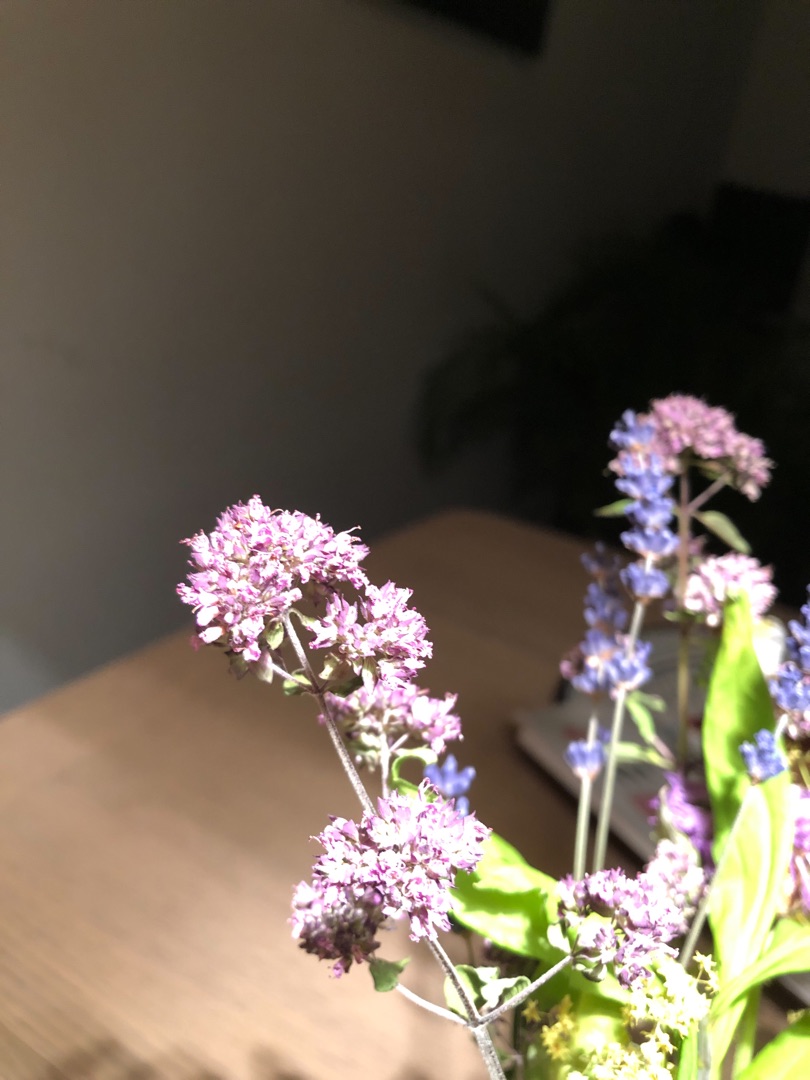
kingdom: Plantae
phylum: Tracheophyta
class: Magnoliopsida
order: Lamiales
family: Lamiaceae
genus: Origanum
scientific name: Origanum vulgare
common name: Merian
